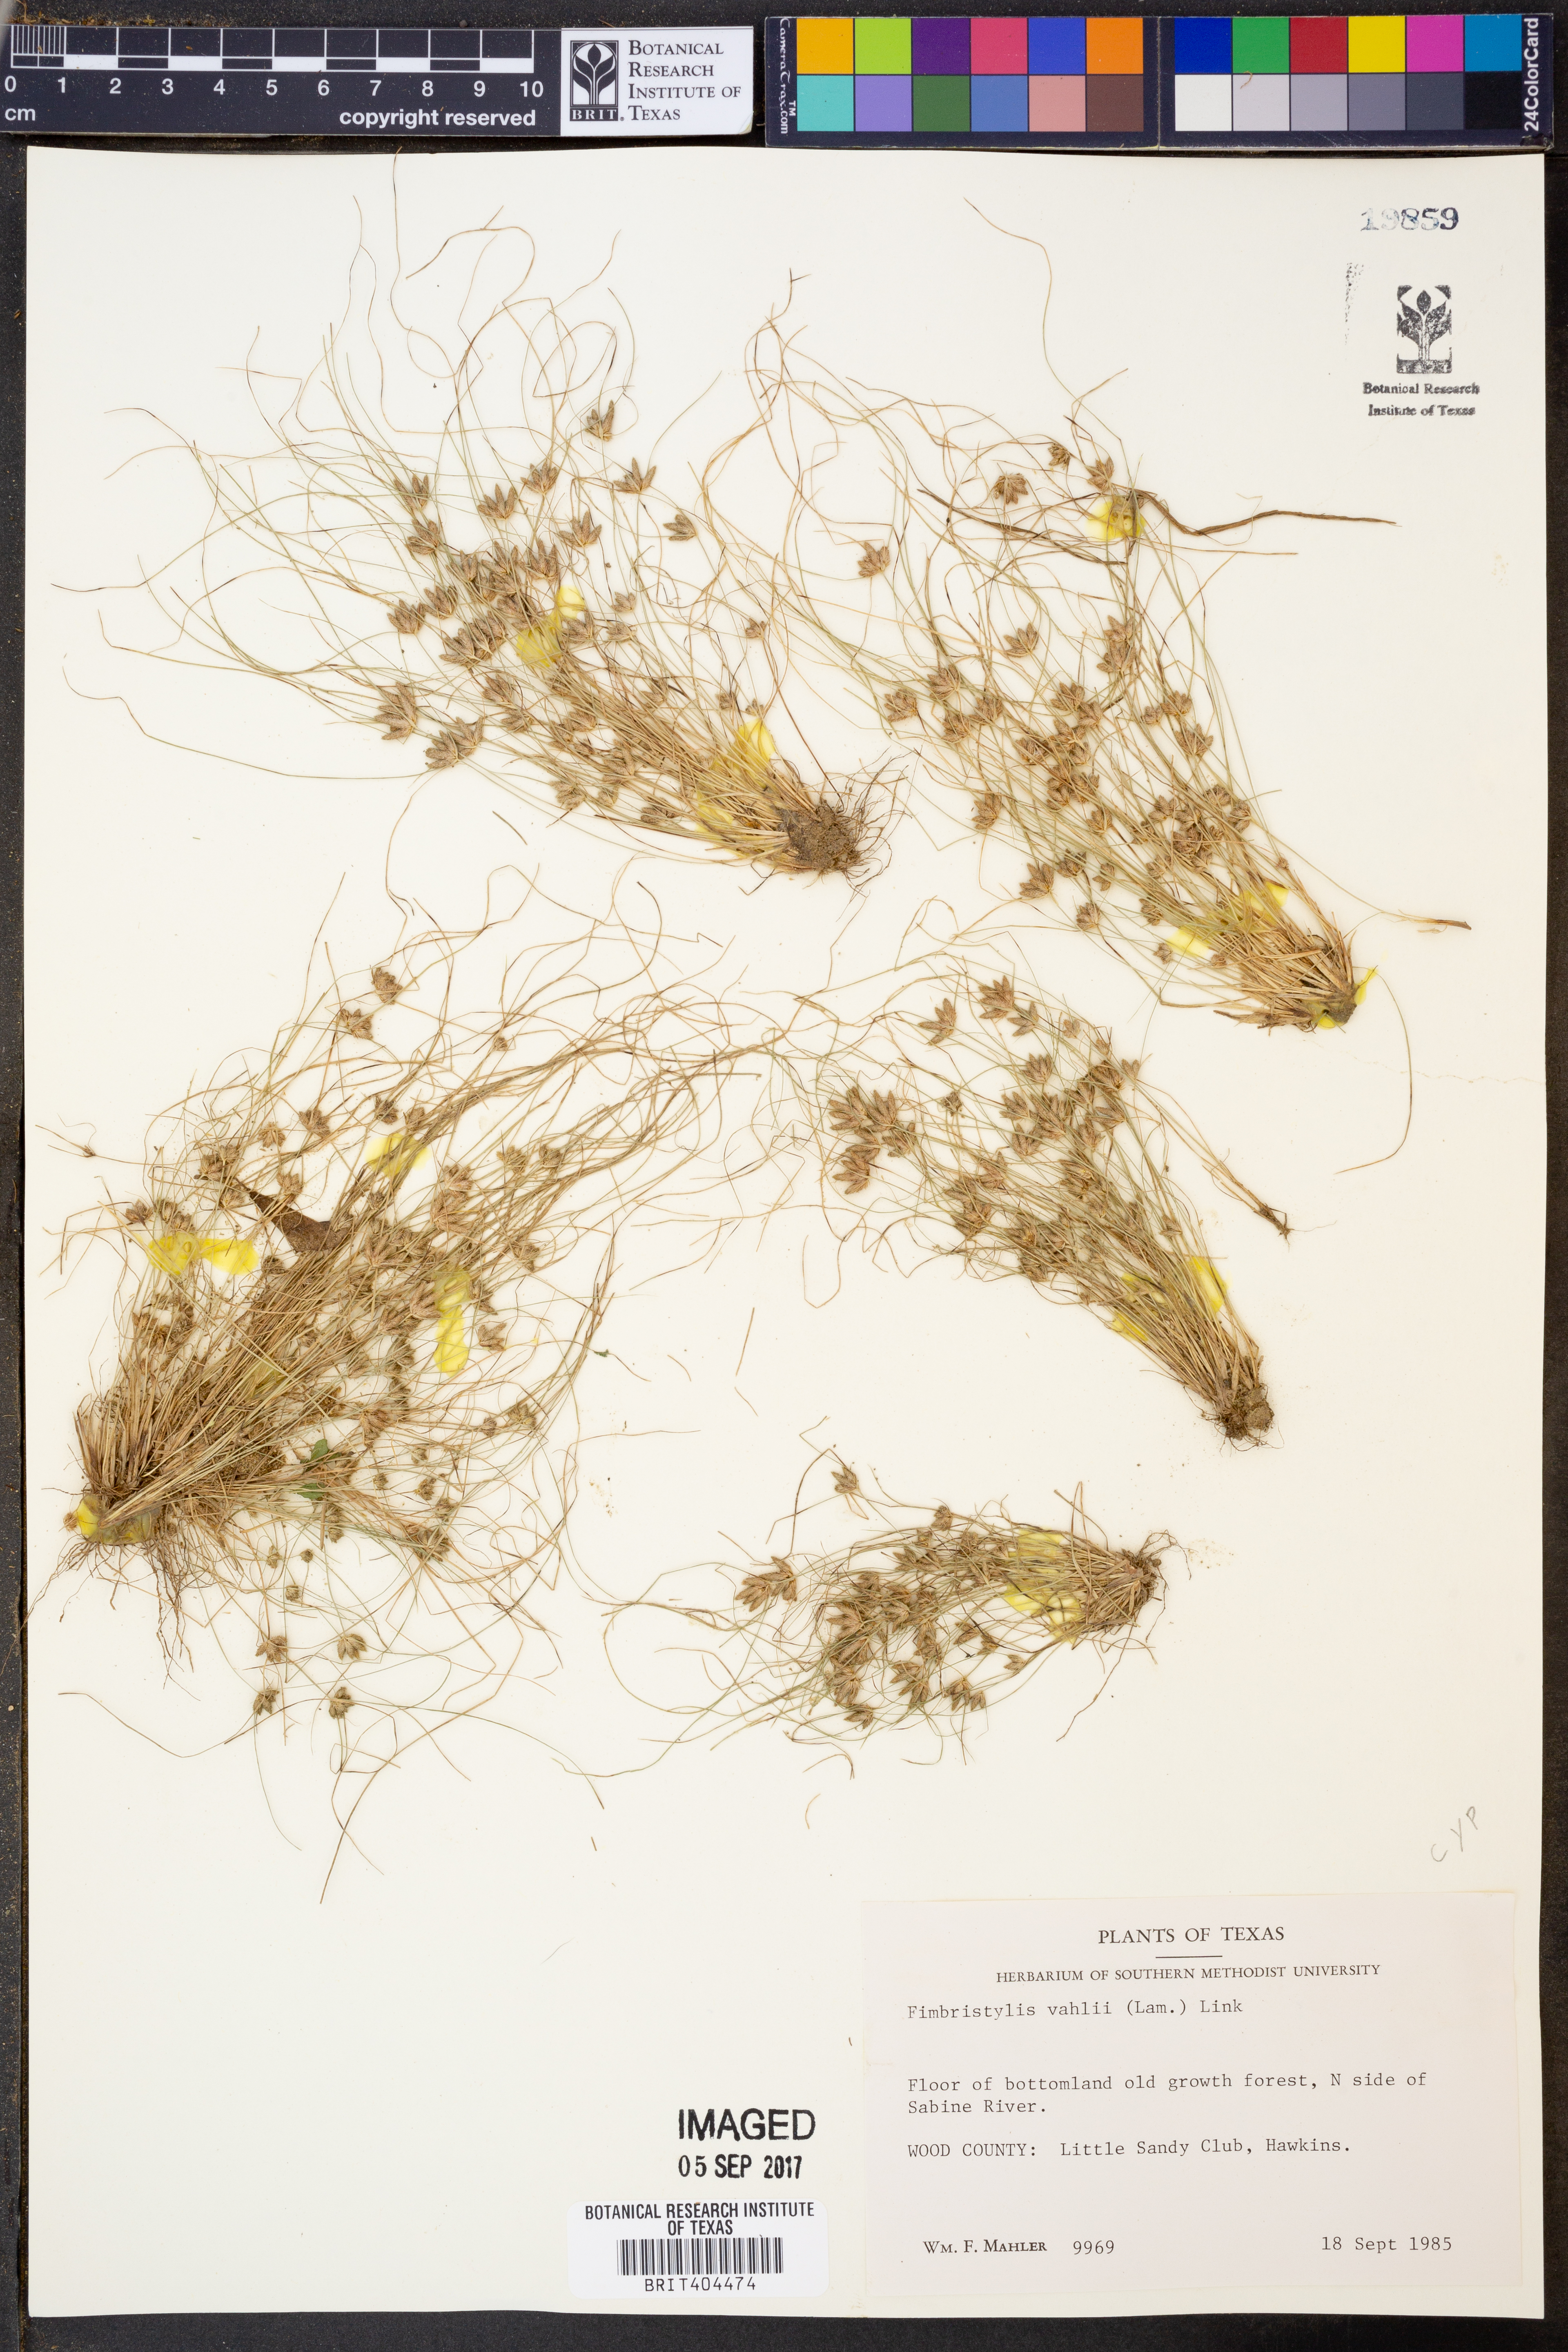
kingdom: Plantae
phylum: Tracheophyta
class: Liliopsida
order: Poales
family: Cyperaceae
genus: Fimbristylis
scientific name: Fimbristylis vahlii
